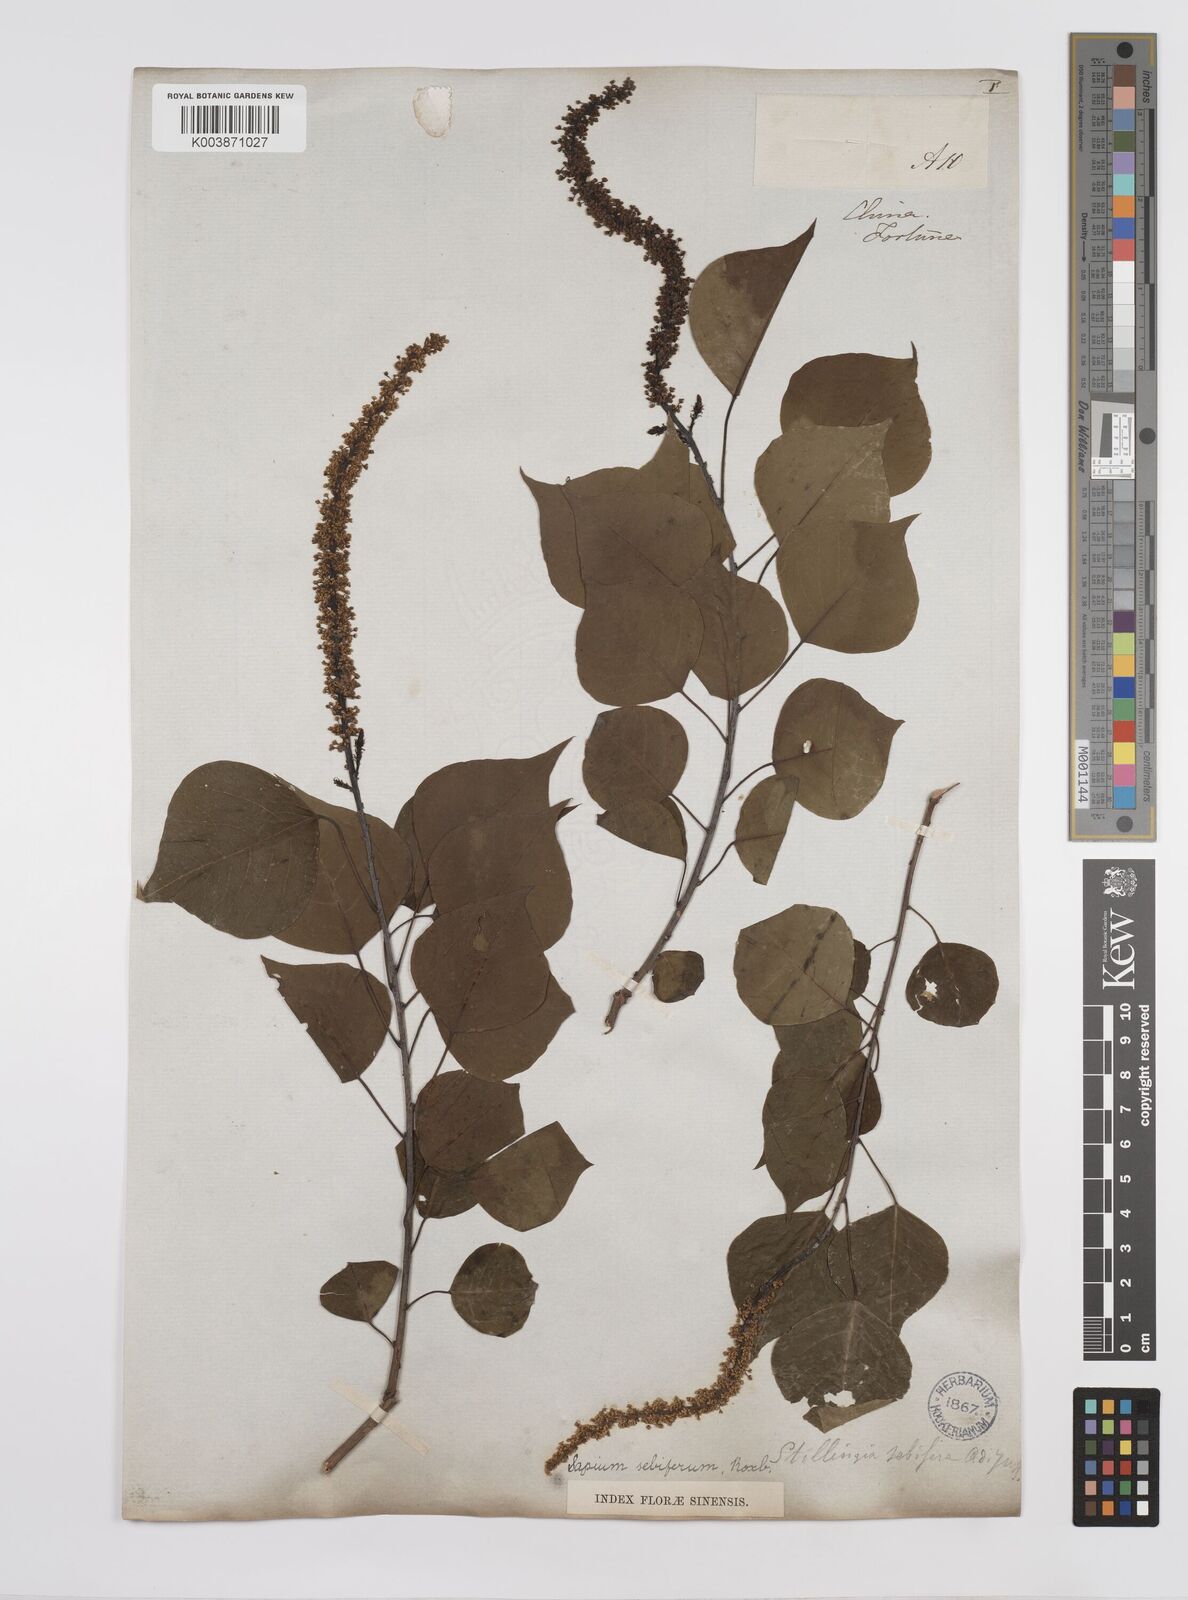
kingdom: Plantae
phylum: Tracheophyta
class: Magnoliopsida
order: Malpighiales
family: Euphorbiaceae
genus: Triadica
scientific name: Triadica sebifera
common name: Chinese tallow
